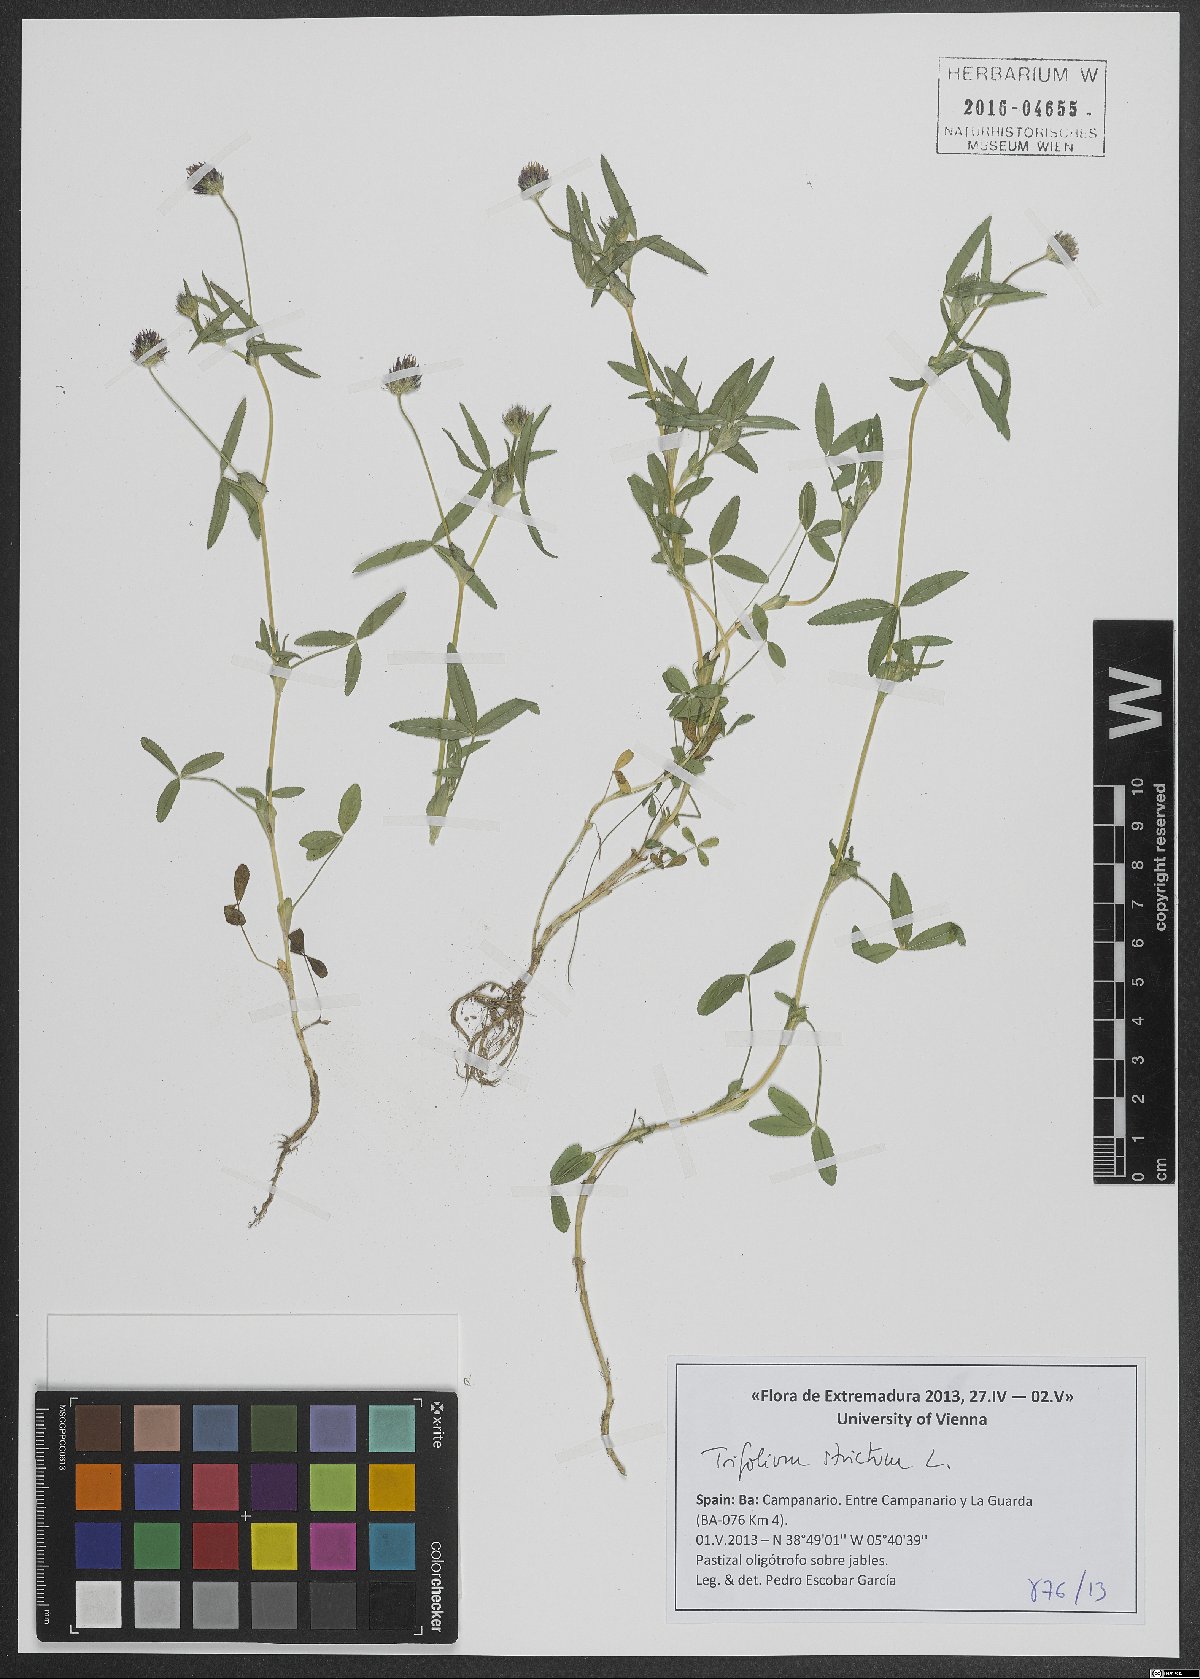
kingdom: Plantae
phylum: Tracheophyta
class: Magnoliopsida
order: Fabales
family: Fabaceae
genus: Trifolium
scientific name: Trifolium strictum
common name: Upright clover
